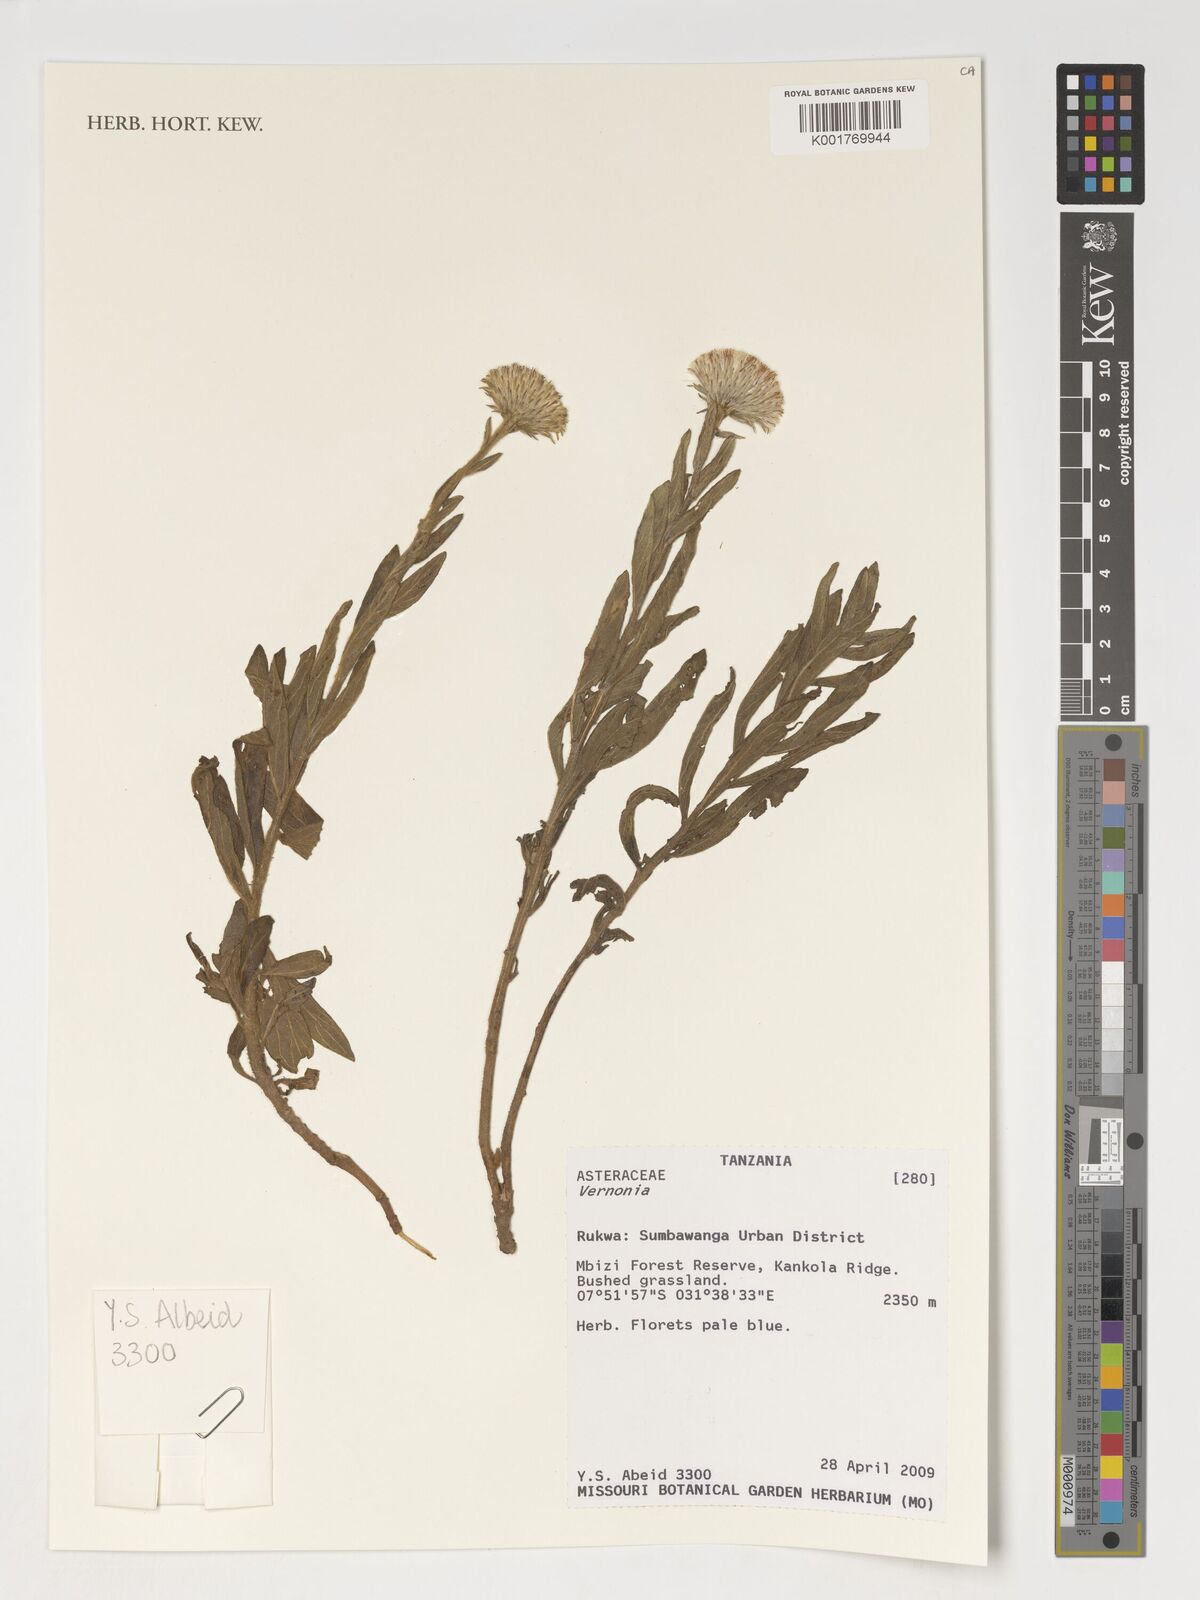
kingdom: Plantae
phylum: Tracheophyta
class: Magnoliopsida
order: Asterales
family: Asteraceae
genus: Vernonia
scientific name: Vernonia
